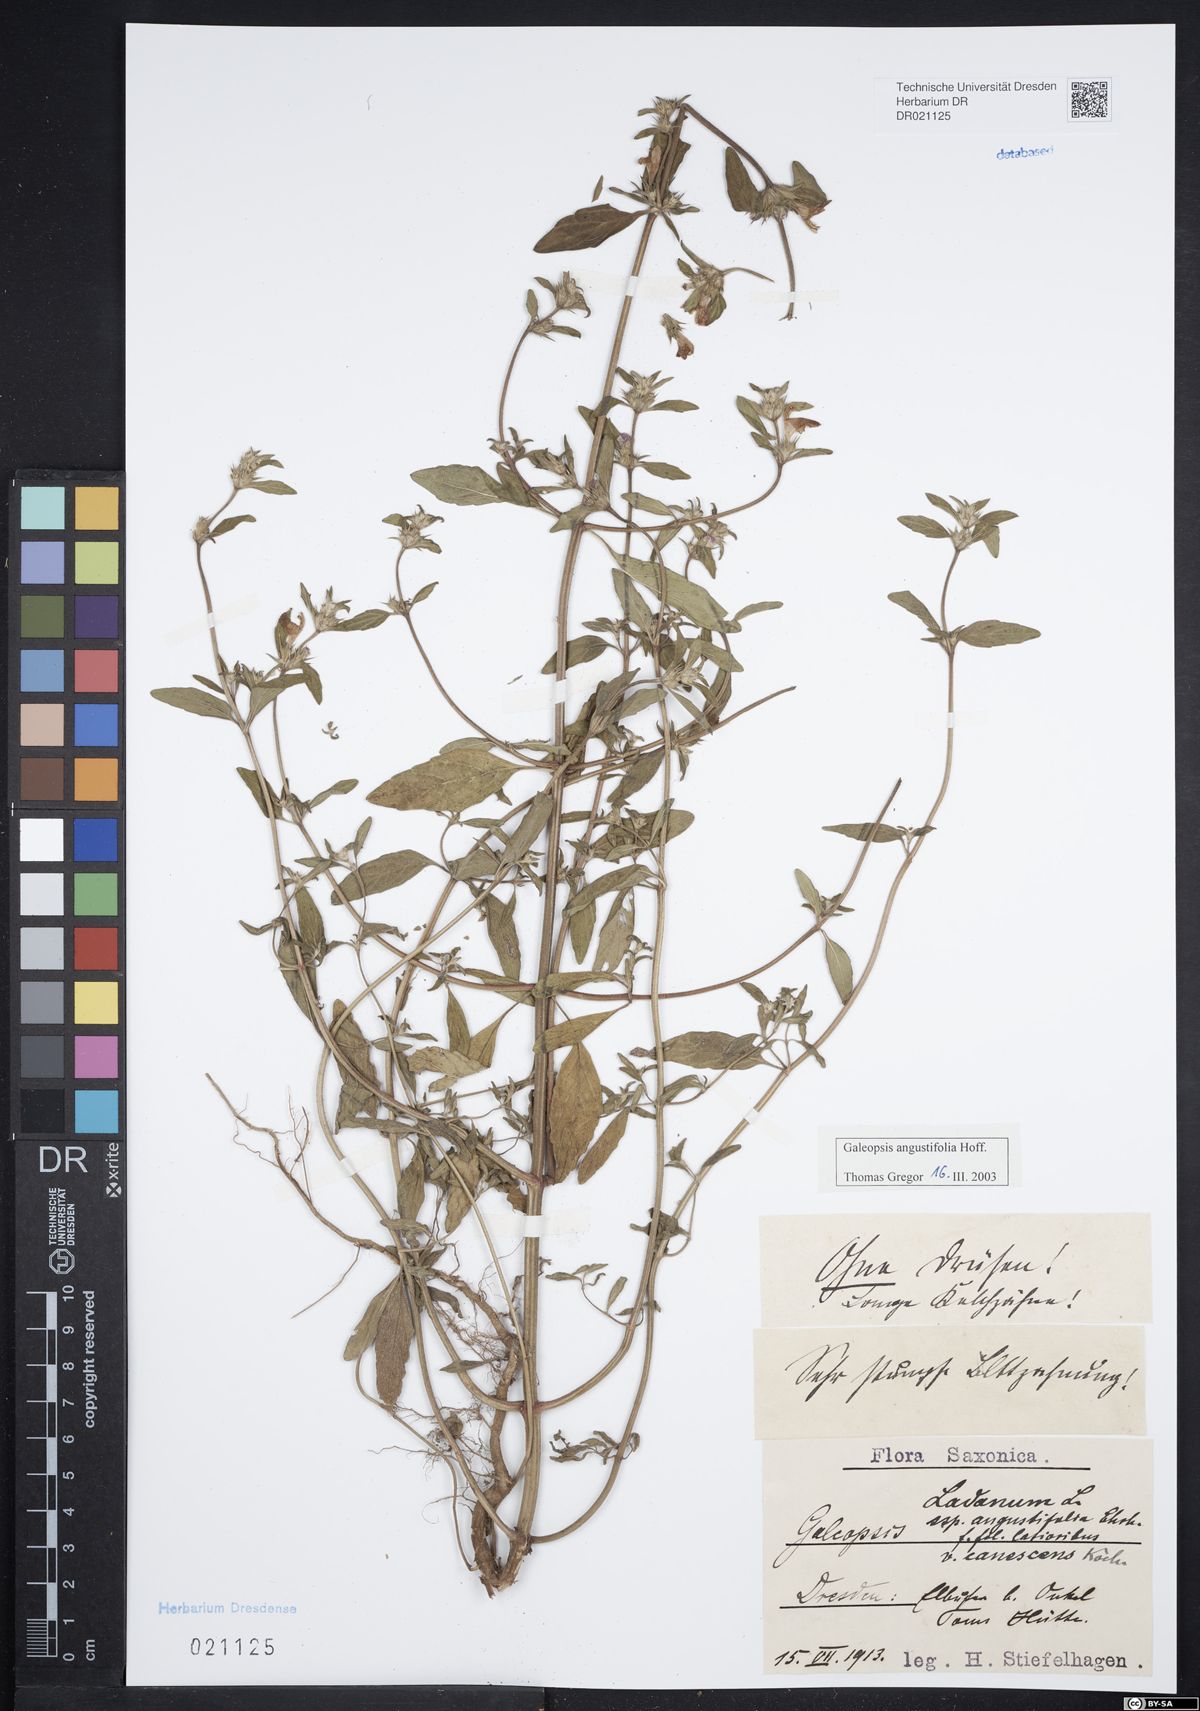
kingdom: Plantae
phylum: Tracheophyta
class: Magnoliopsida
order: Lamiales
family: Lamiaceae
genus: Galeopsis
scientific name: Galeopsis angustifolia
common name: Red hemp-nettle
